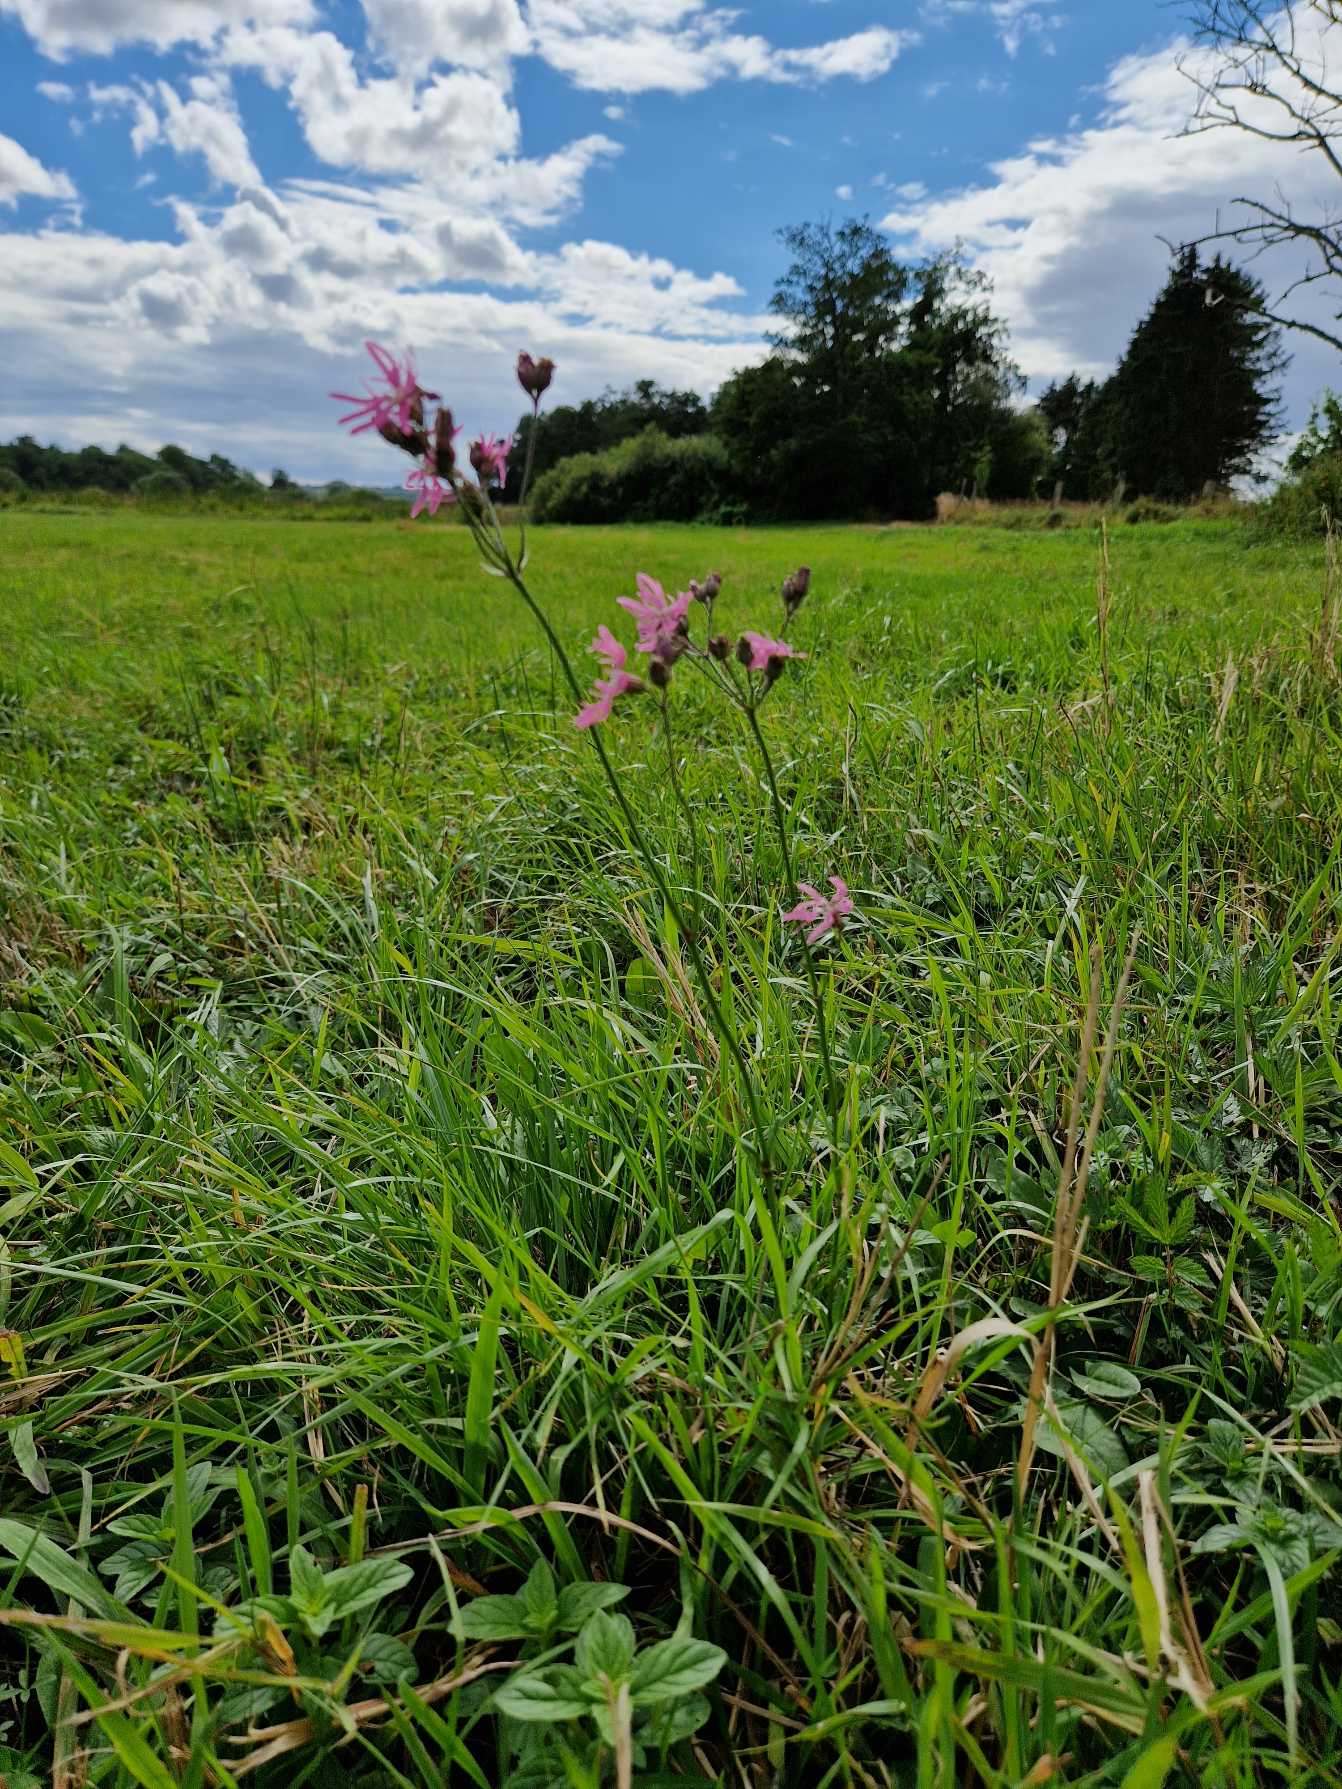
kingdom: Plantae
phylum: Tracheophyta
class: Magnoliopsida
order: Caryophyllales
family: Caryophyllaceae
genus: Silene
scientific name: Silene flos-cuculi
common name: Trævlekrone
